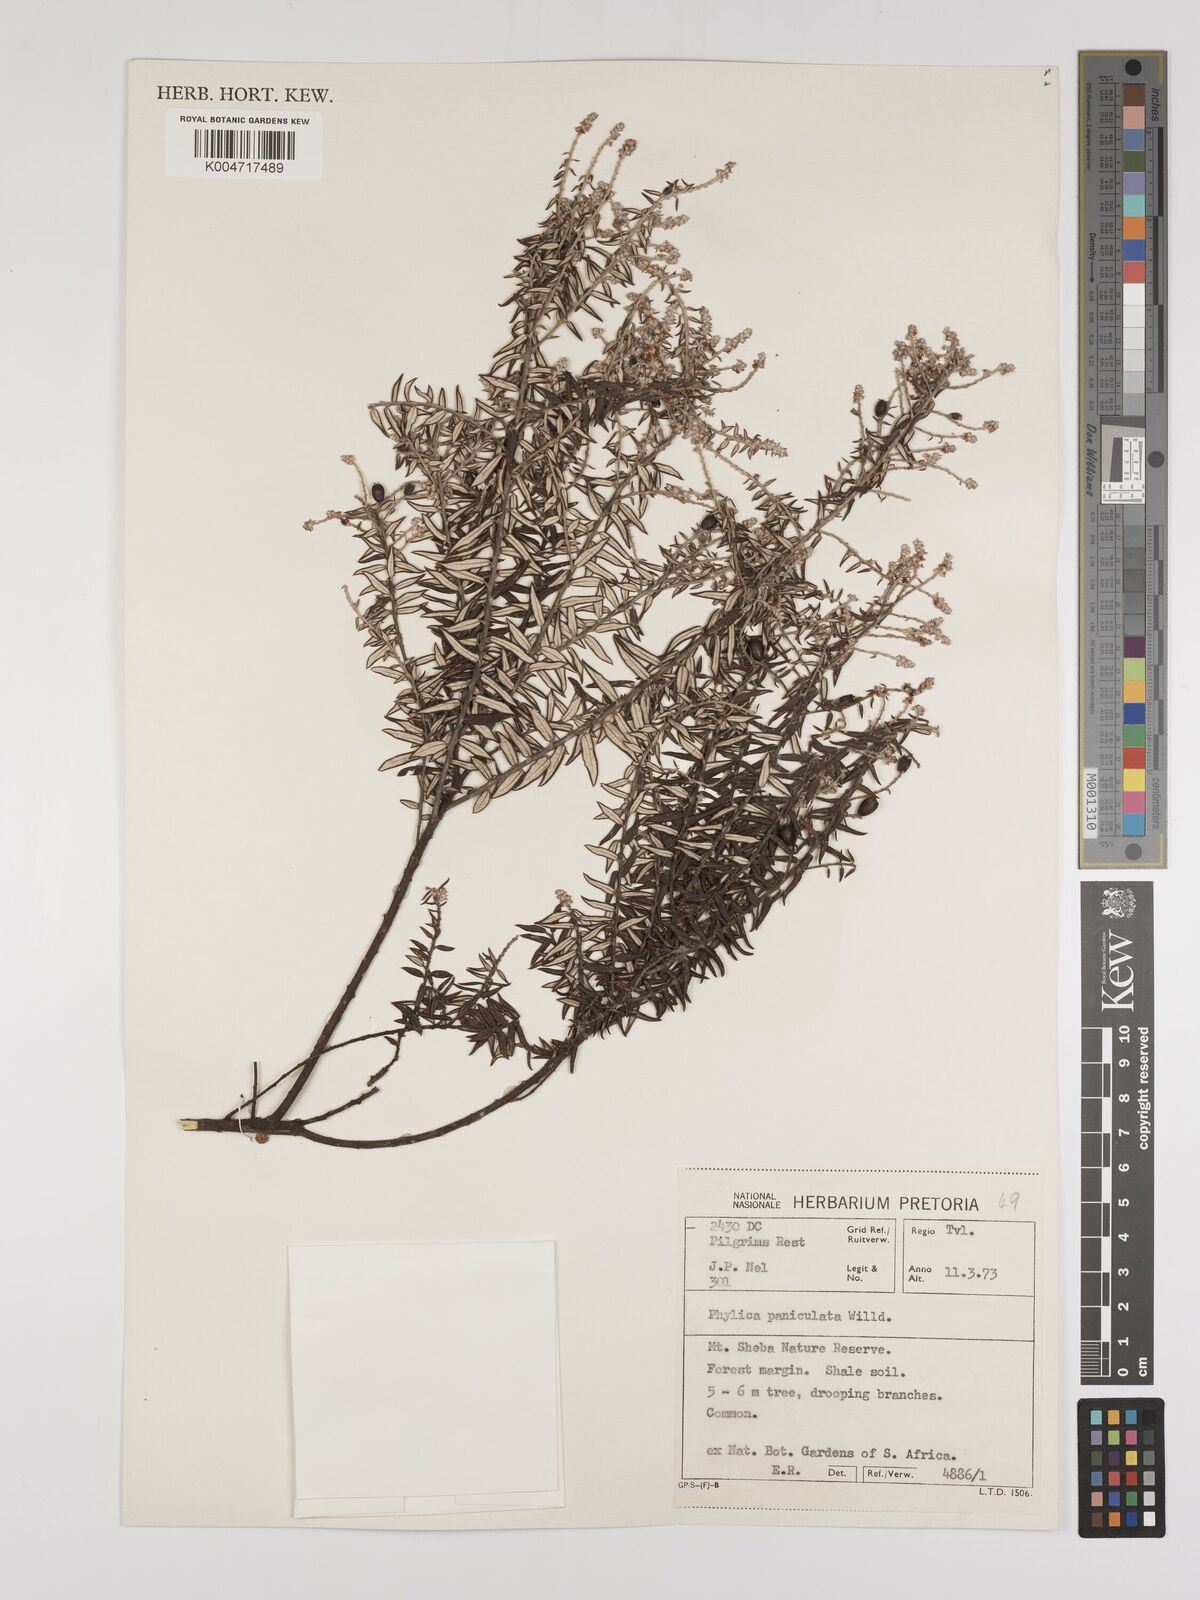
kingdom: Plantae
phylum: Tracheophyta
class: Magnoliopsida
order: Rosales
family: Rhamnaceae
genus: Phylica
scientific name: Phylica paniculata
